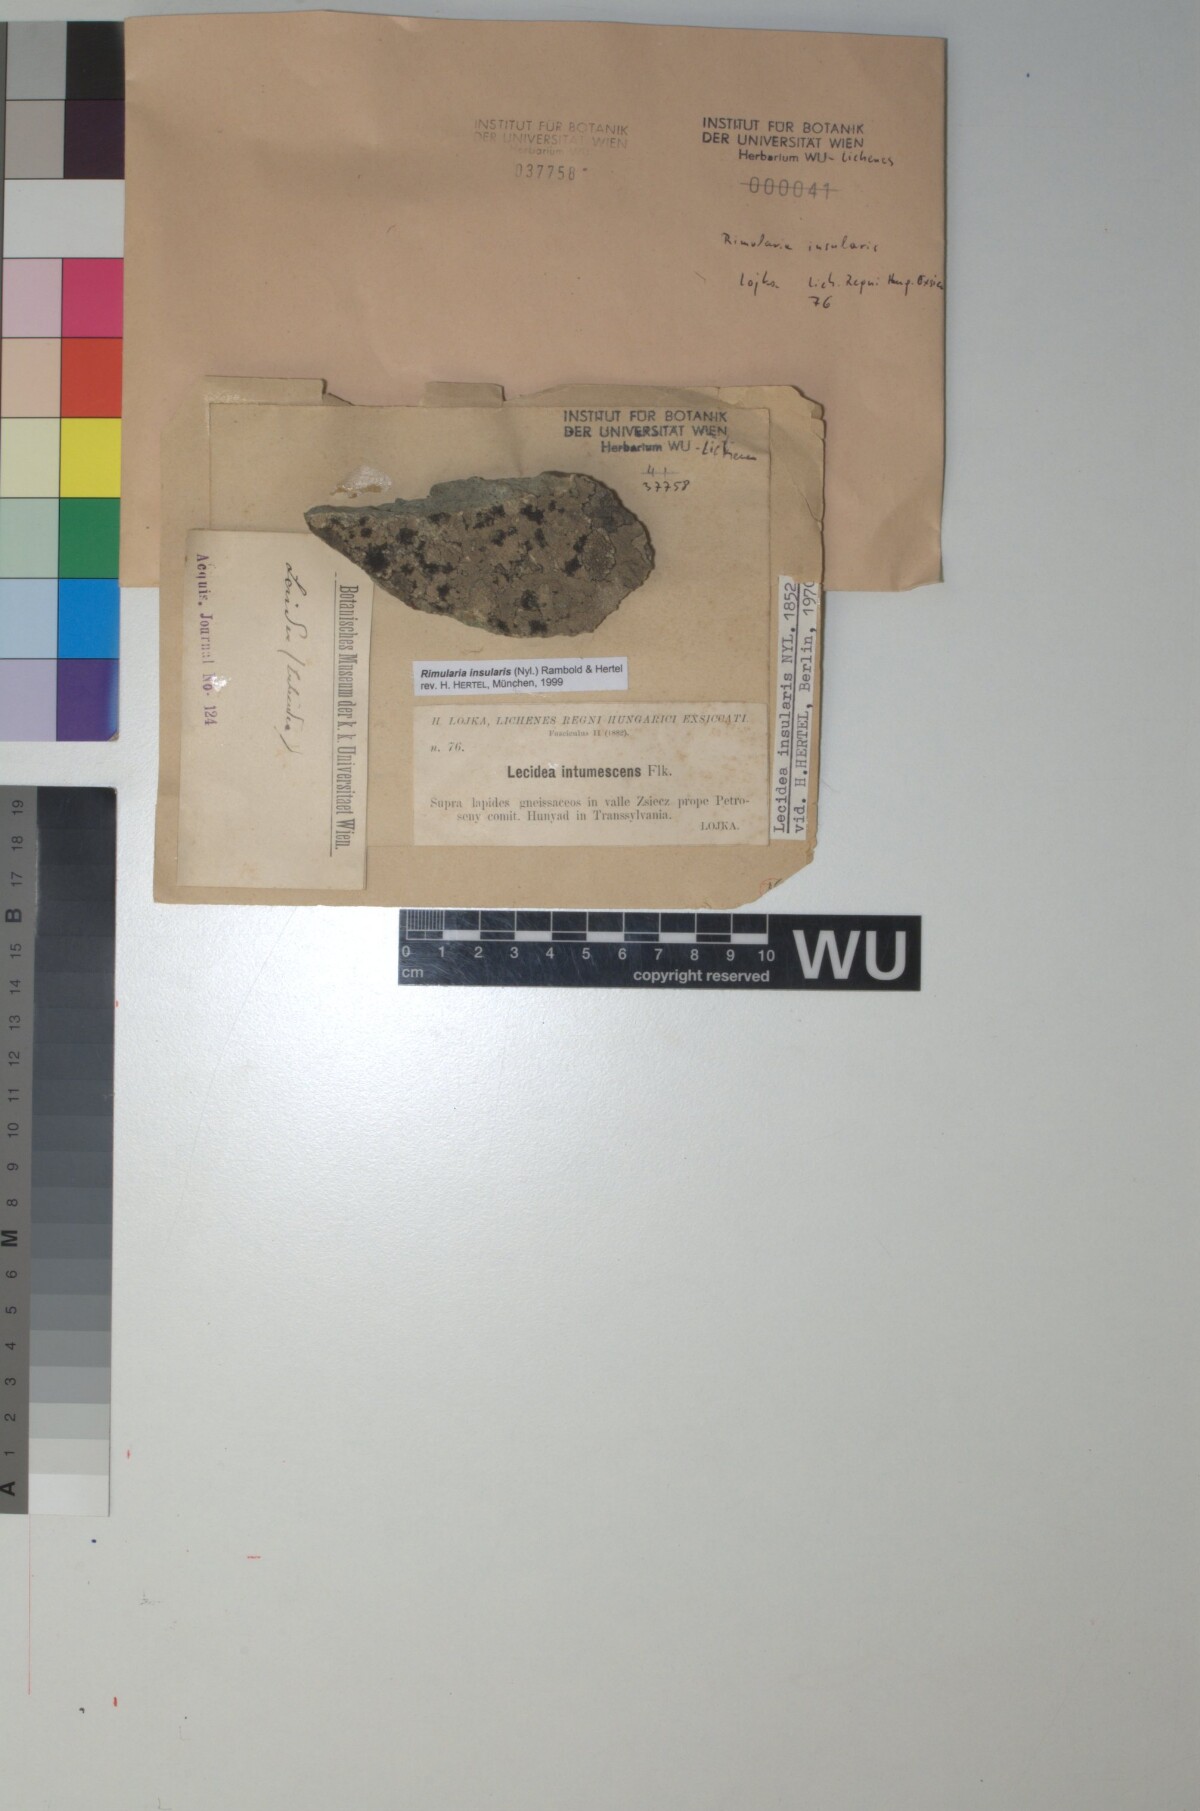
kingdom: Fungi
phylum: Ascomycota
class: Lecanoromycetes
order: Baeomycetales
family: Trapeliaceae
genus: Lambiella
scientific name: Lambiella insularis
